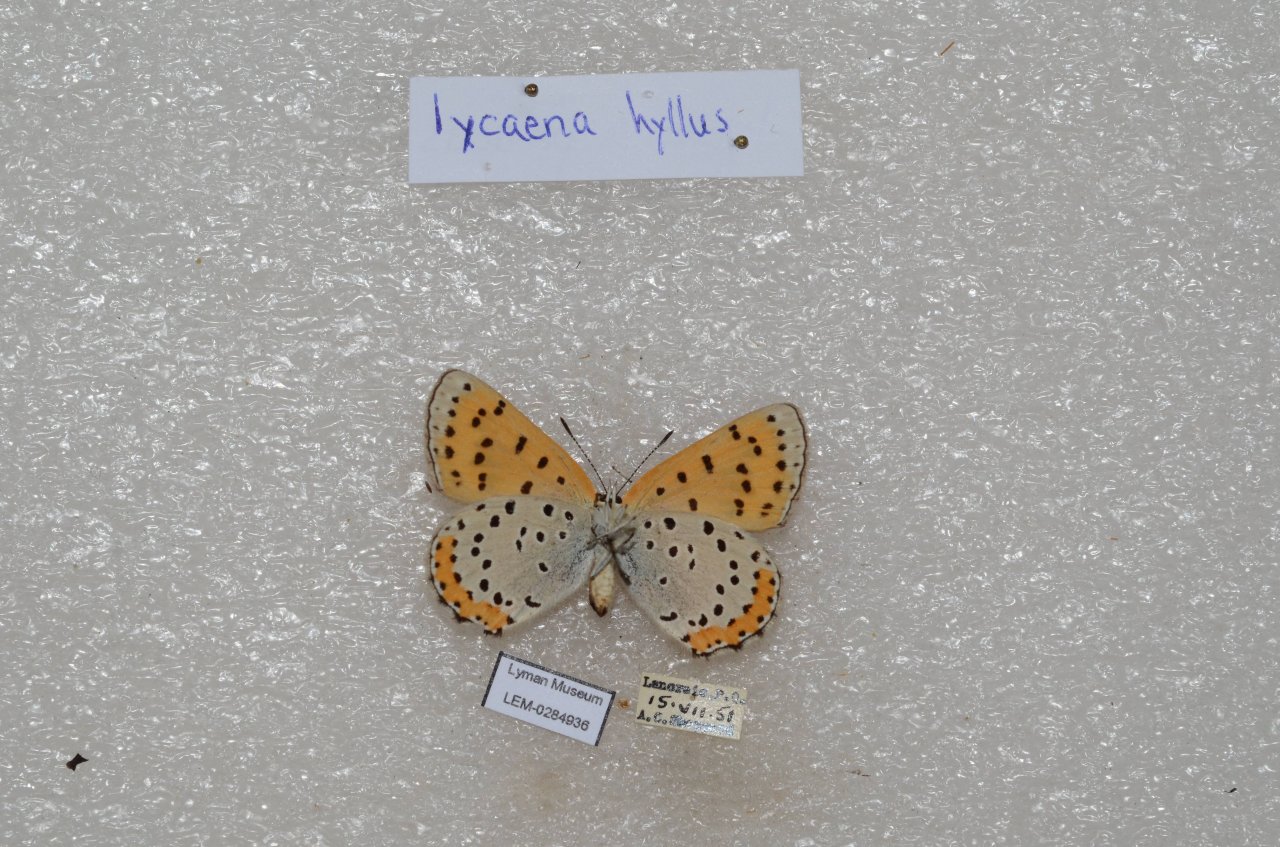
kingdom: Animalia
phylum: Arthropoda
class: Insecta
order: Lepidoptera
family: Sesiidae
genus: Sesia
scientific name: Sesia Lycaena hyllus
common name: Bronze Copper
